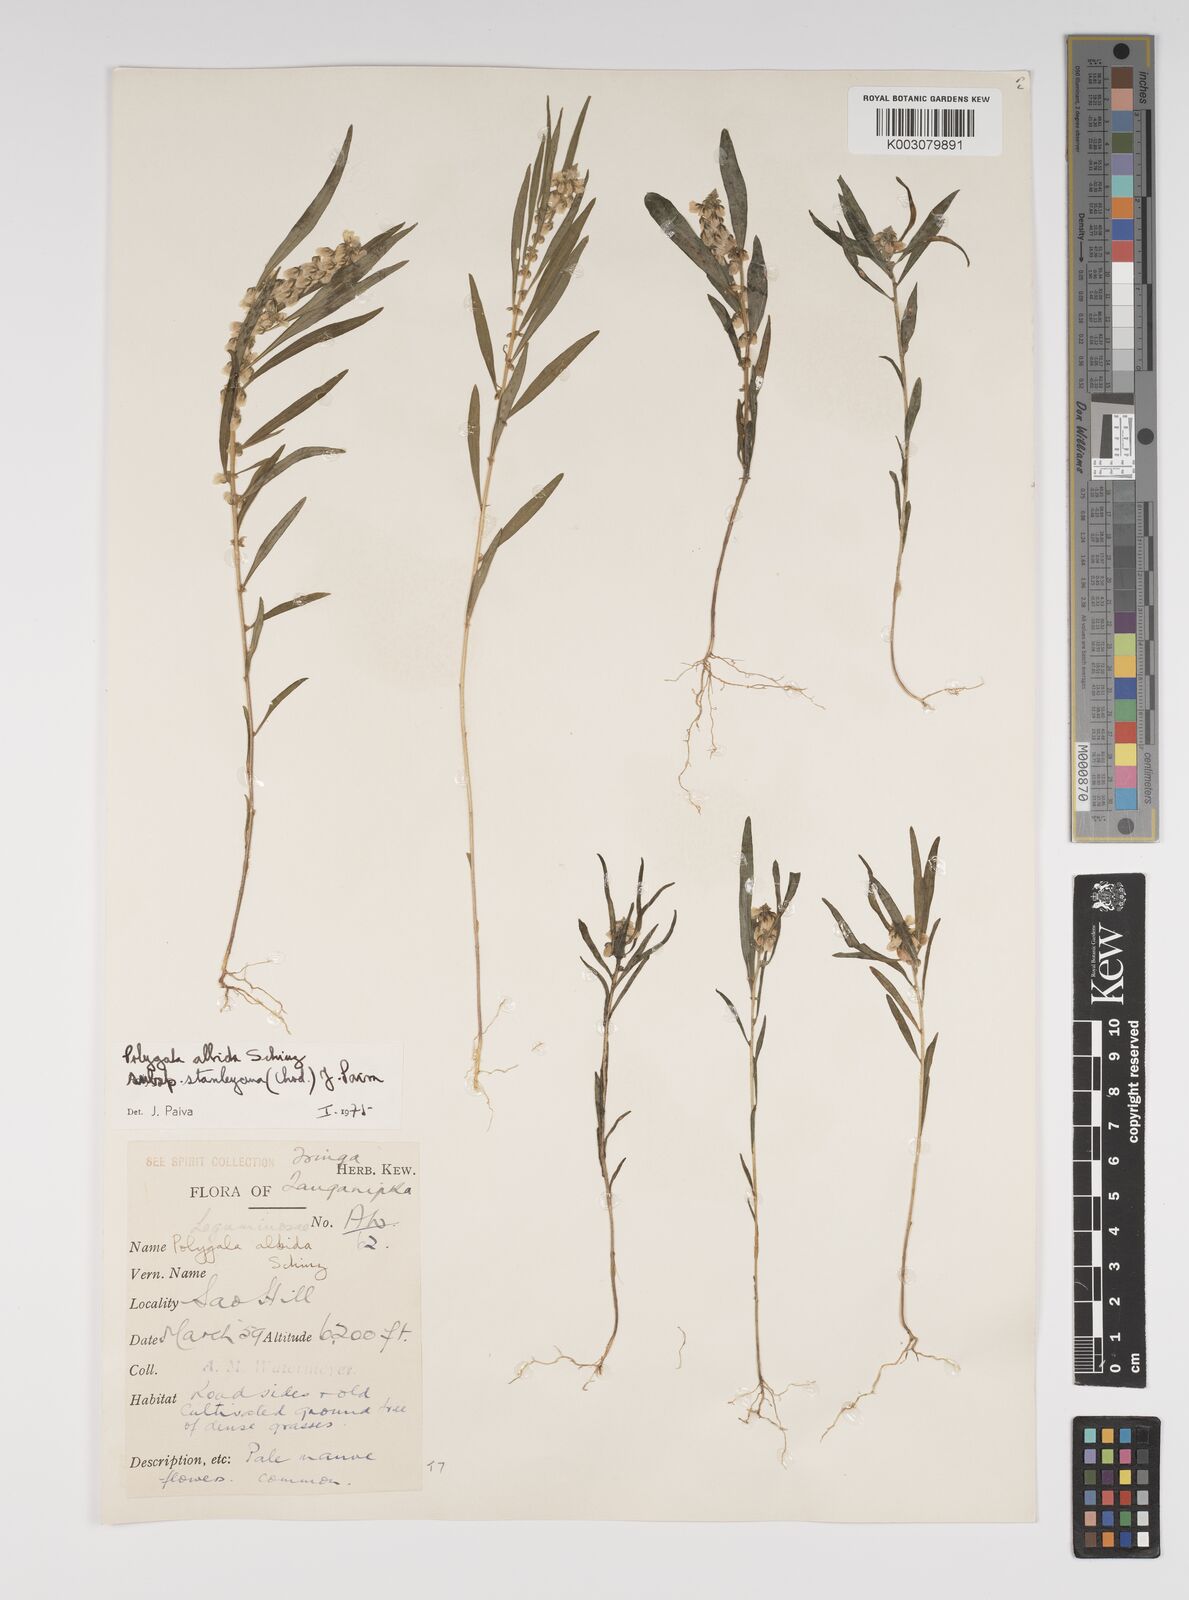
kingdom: Plantae
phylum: Tracheophyta
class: Magnoliopsida
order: Fabales
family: Polygalaceae
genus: Polygala
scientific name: Polygala albida
